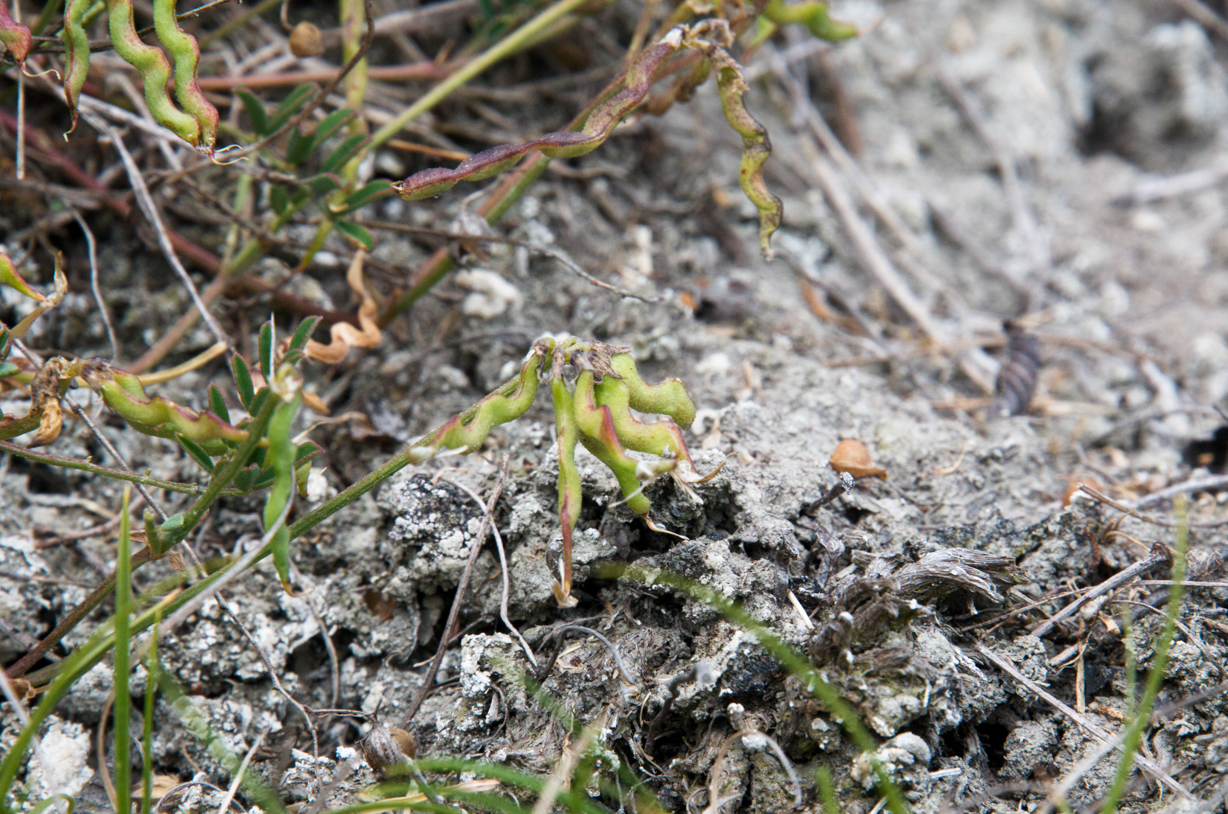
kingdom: Plantae
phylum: Tracheophyta
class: Magnoliopsida
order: Fabales
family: Fabaceae
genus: Hippocrepis
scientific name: Hippocrepis comosa
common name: Horseshoe vetch
